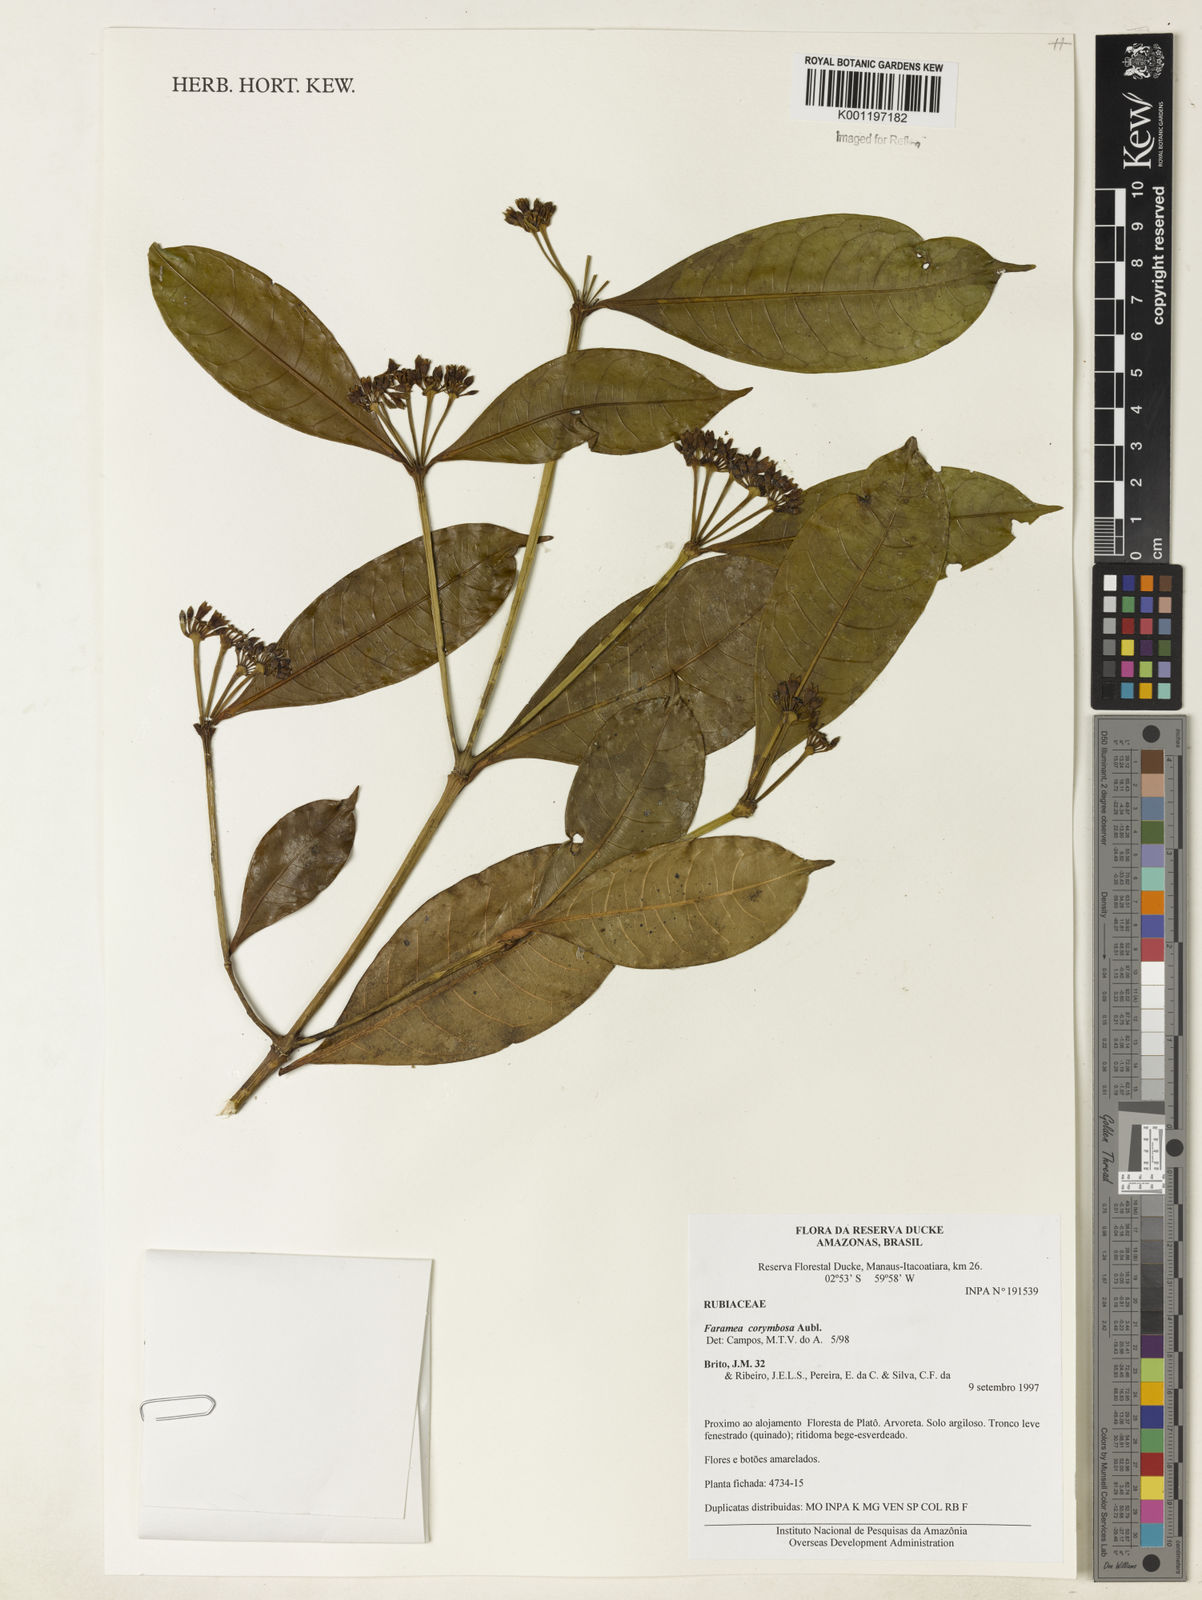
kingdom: Plantae
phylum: Tracheophyta
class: Magnoliopsida
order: Gentianales
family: Rubiaceae
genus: Faramea
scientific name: Faramea corymbosa
